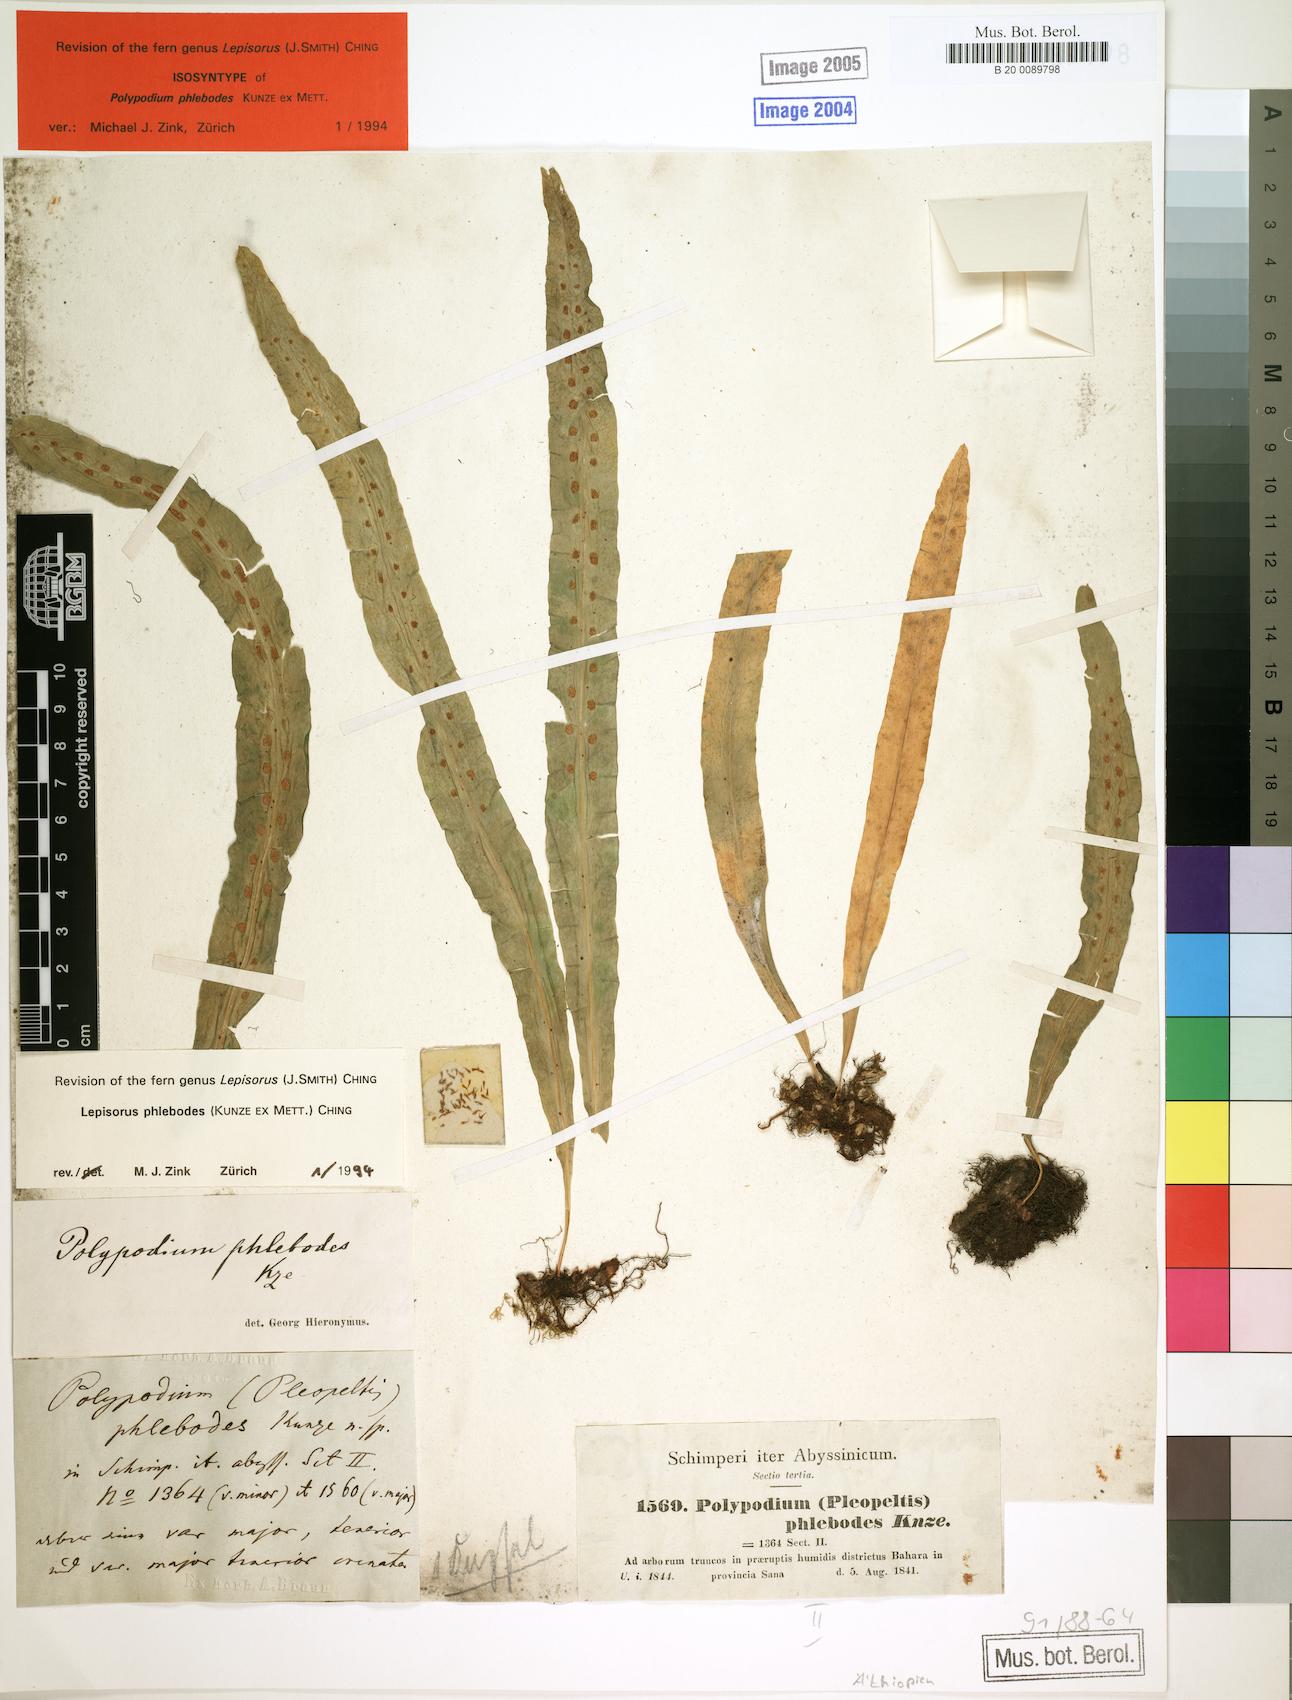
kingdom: Plantae
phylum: Tracheophyta
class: Polypodiopsida
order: Polypodiales
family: Polypodiaceae
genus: Lepisorus
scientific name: Lepisorus excavatus
